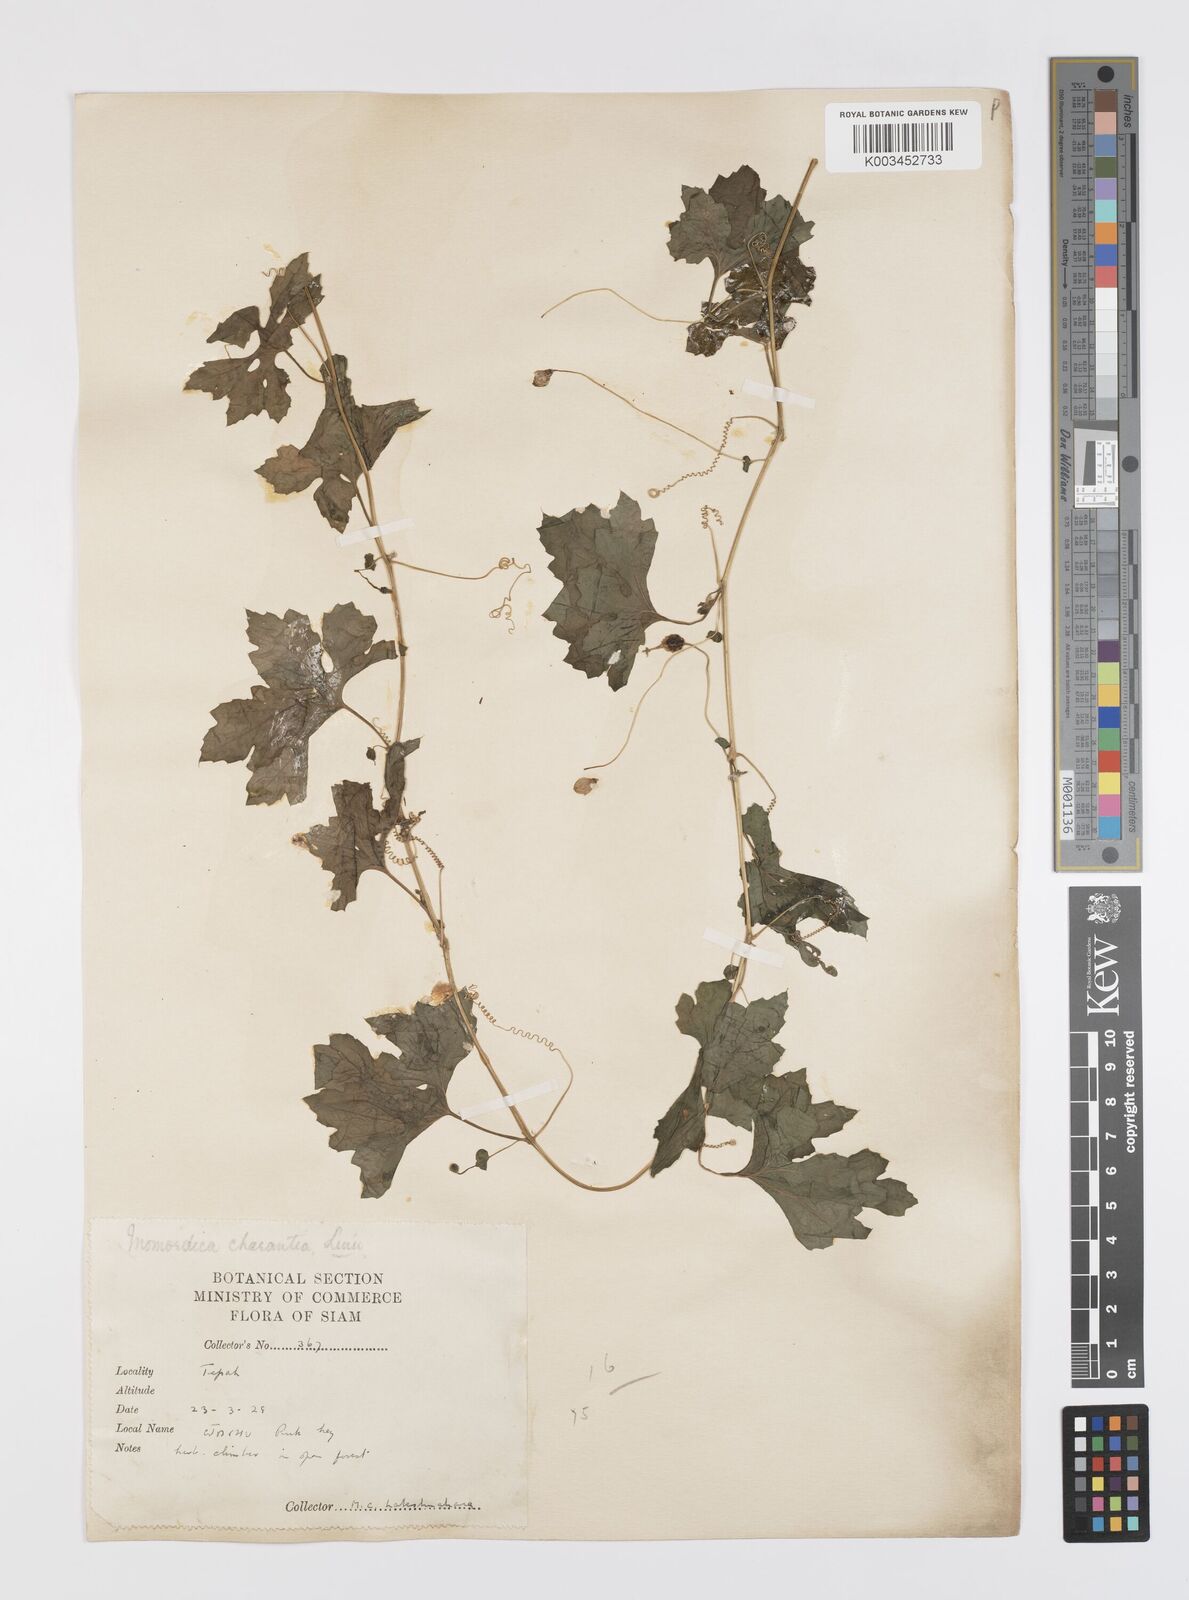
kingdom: Plantae
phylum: Tracheophyta
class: Magnoliopsida
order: Cucurbitales
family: Cucurbitaceae
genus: Momordica
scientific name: Momordica charantia
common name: Balsampear
